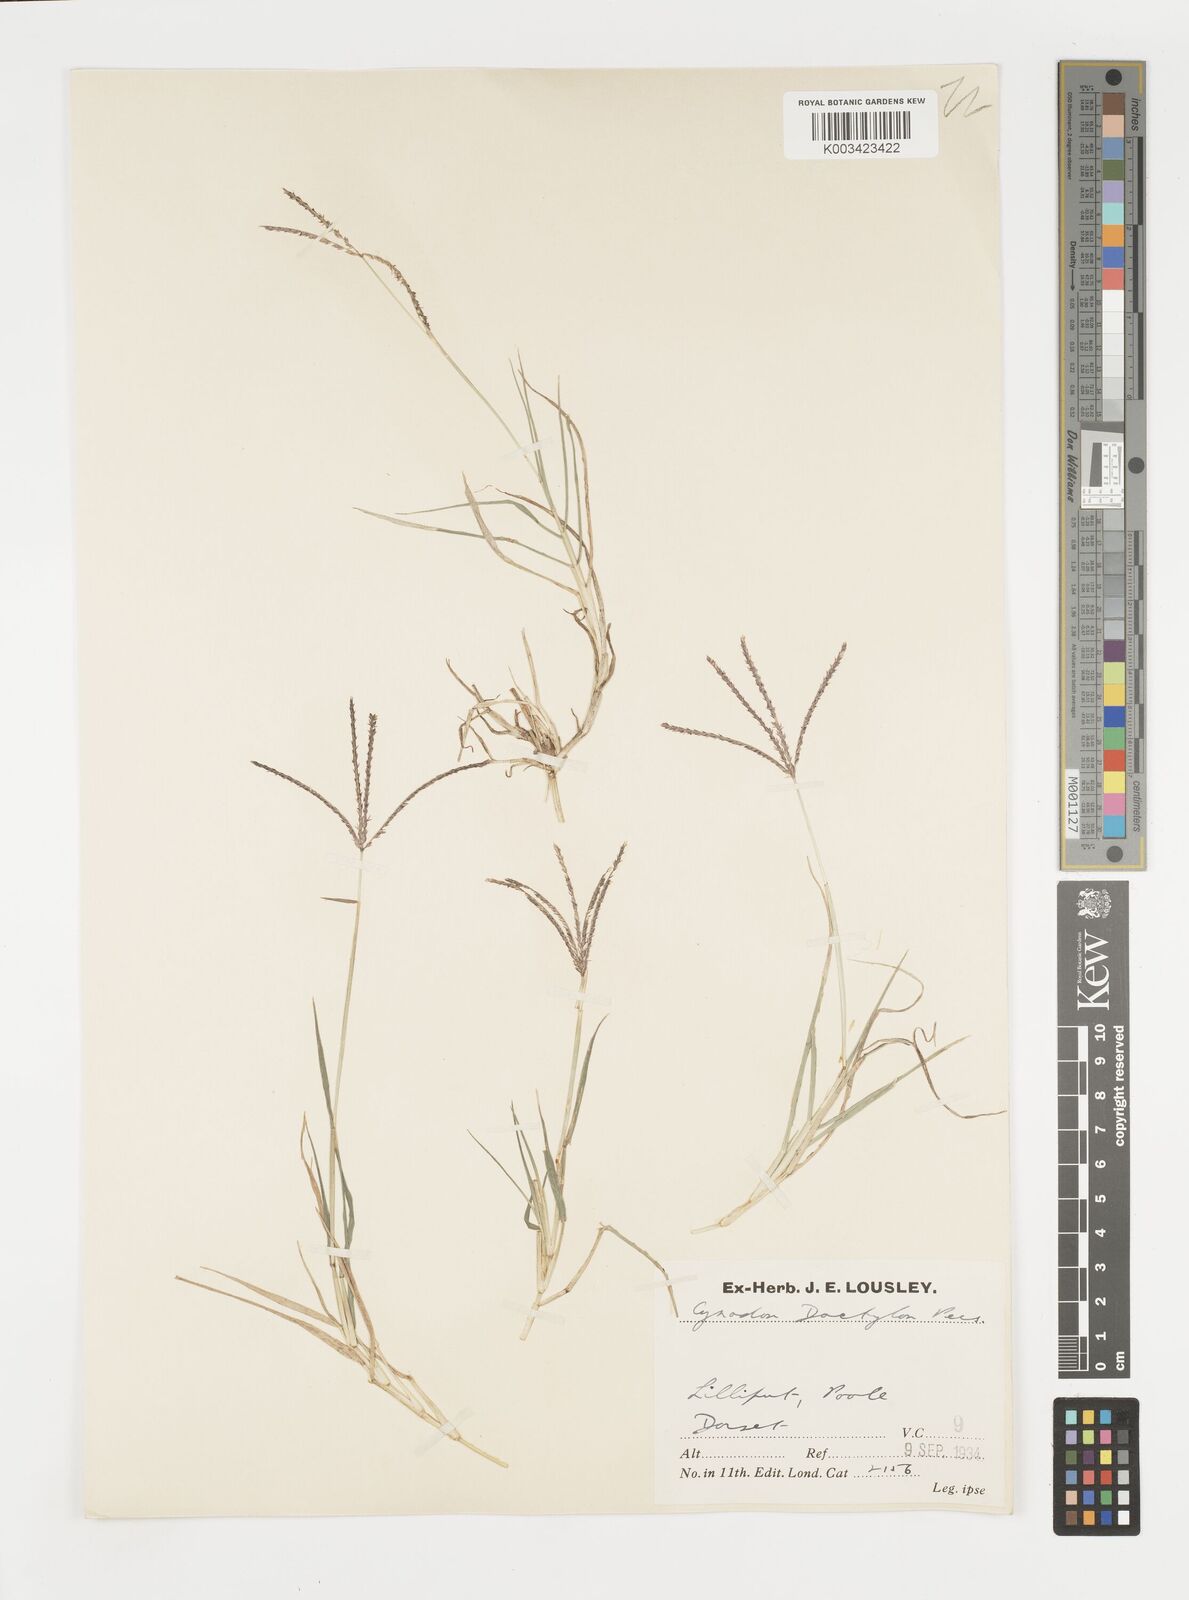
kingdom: Plantae
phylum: Tracheophyta
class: Liliopsida
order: Poales
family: Poaceae
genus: Cynodon
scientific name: Cynodon dactylon
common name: Bermuda grass
